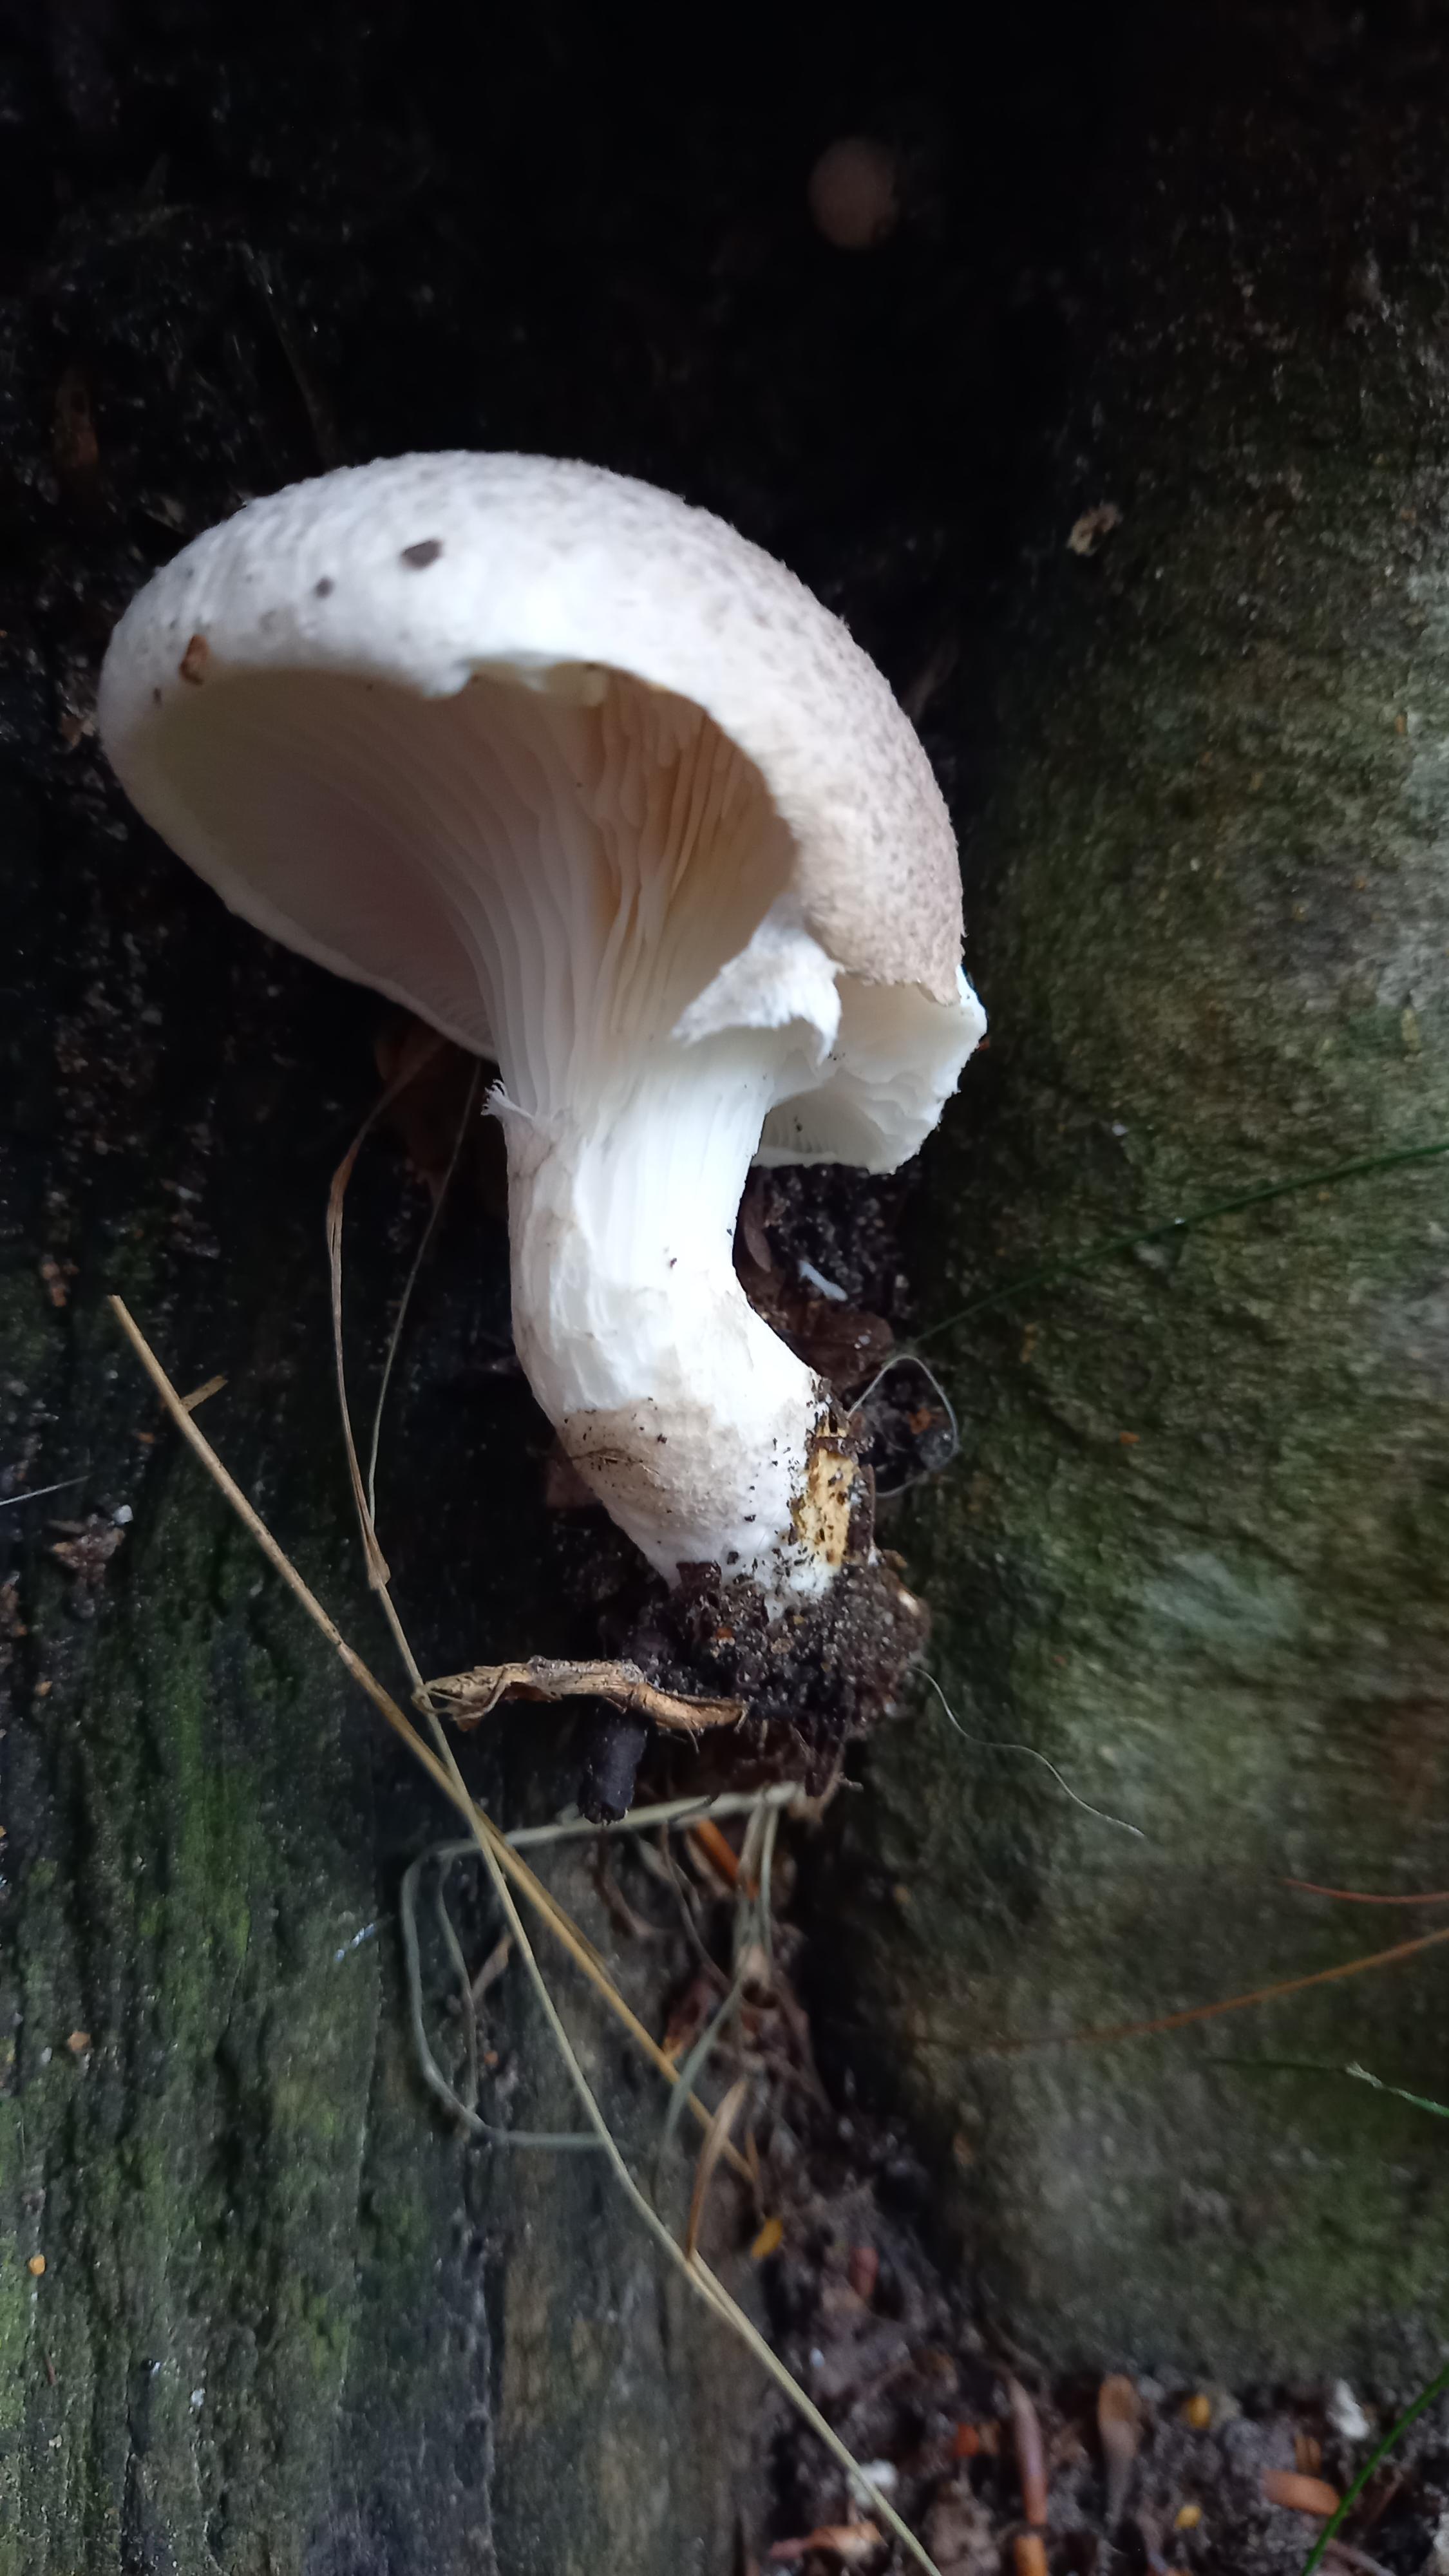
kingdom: Fungi
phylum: Basidiomycota
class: Agaricomycetes
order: Agaricales
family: Pleurotaceae
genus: Pleurotus
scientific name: Pleurotus dryinus
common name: korkagtig østershat
